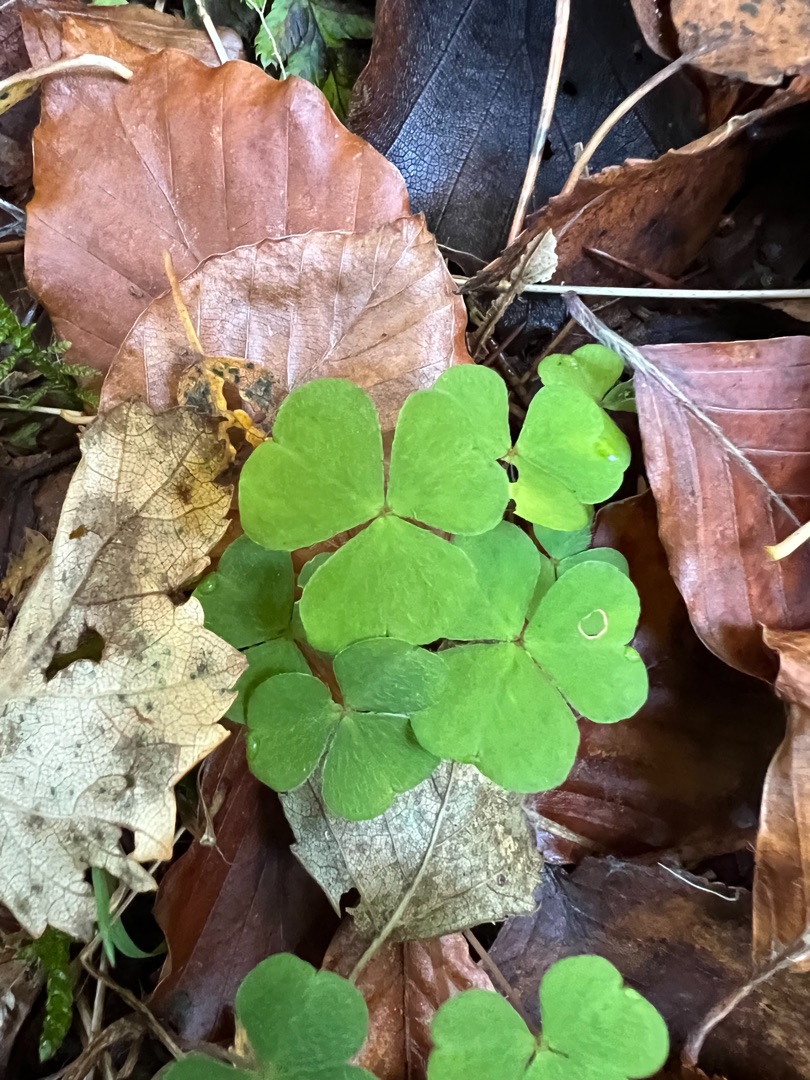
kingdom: Plantae
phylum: Tracheophyta
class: Magnoliopsida
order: Oxalidales
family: Oxalidaceae
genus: Oxalis
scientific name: Oxalis acetosella
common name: Skovsyre
